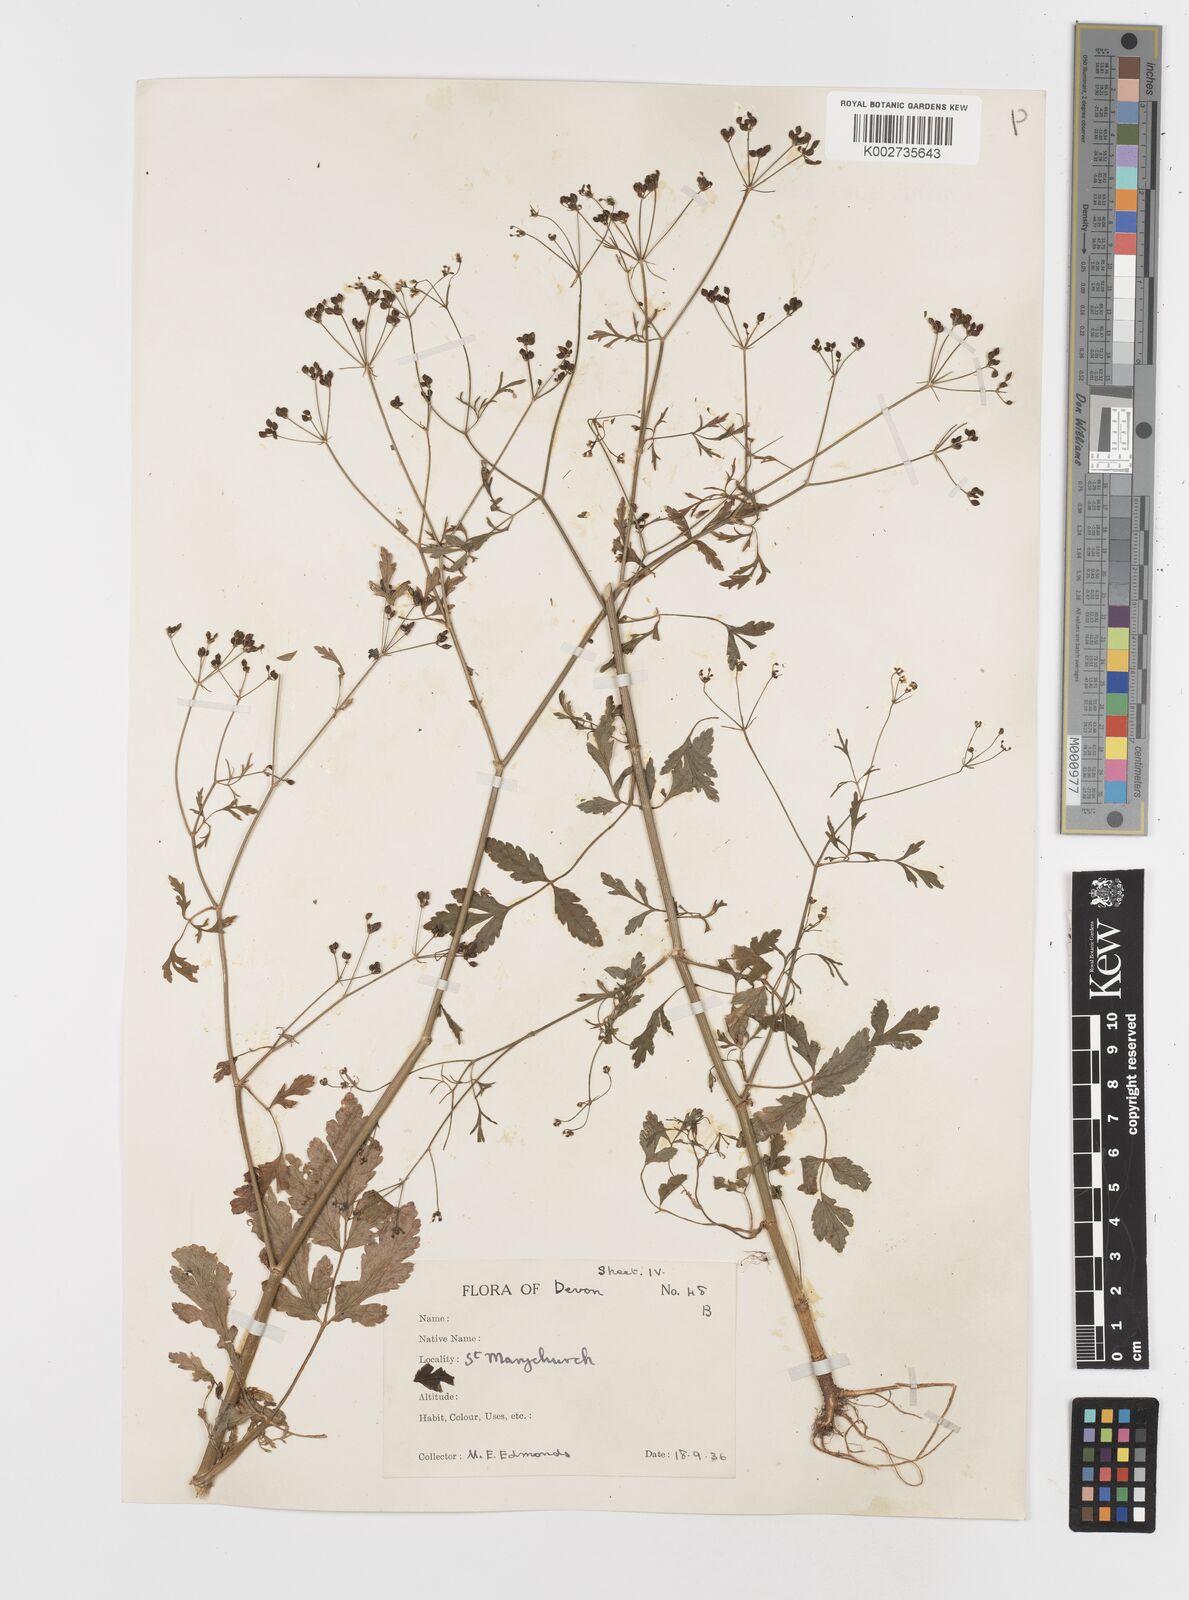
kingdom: Plantae
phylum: Tracheophyta
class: Magnoliopsida
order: Apiales
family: Apiaceae
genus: Sison
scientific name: Sison amomum
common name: Stone-parsley
